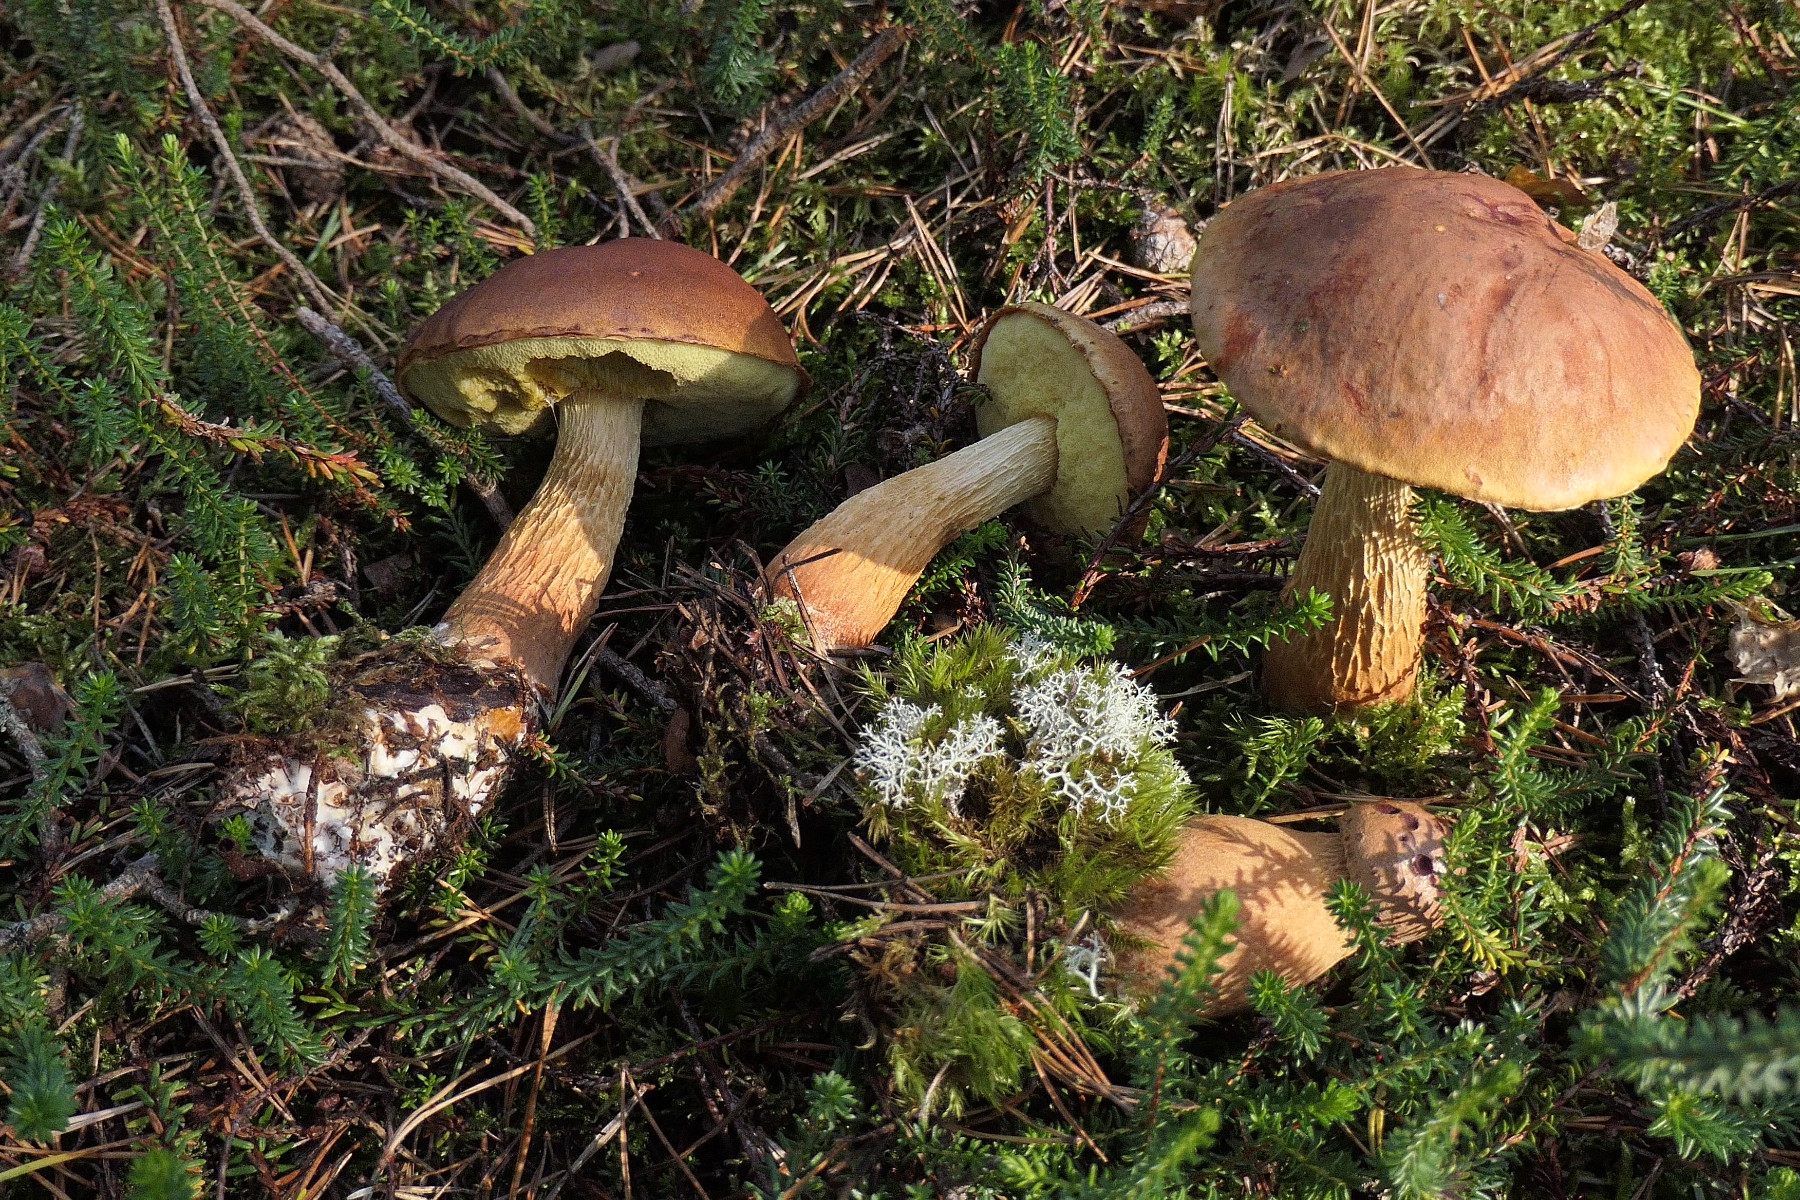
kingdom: Fungi
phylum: Basidiomycota
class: Agaricomycetes
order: Boletales
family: Boletaceae
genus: Aureoboletus
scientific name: Aureoboletus projectellus
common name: ribbestokket rørhat
